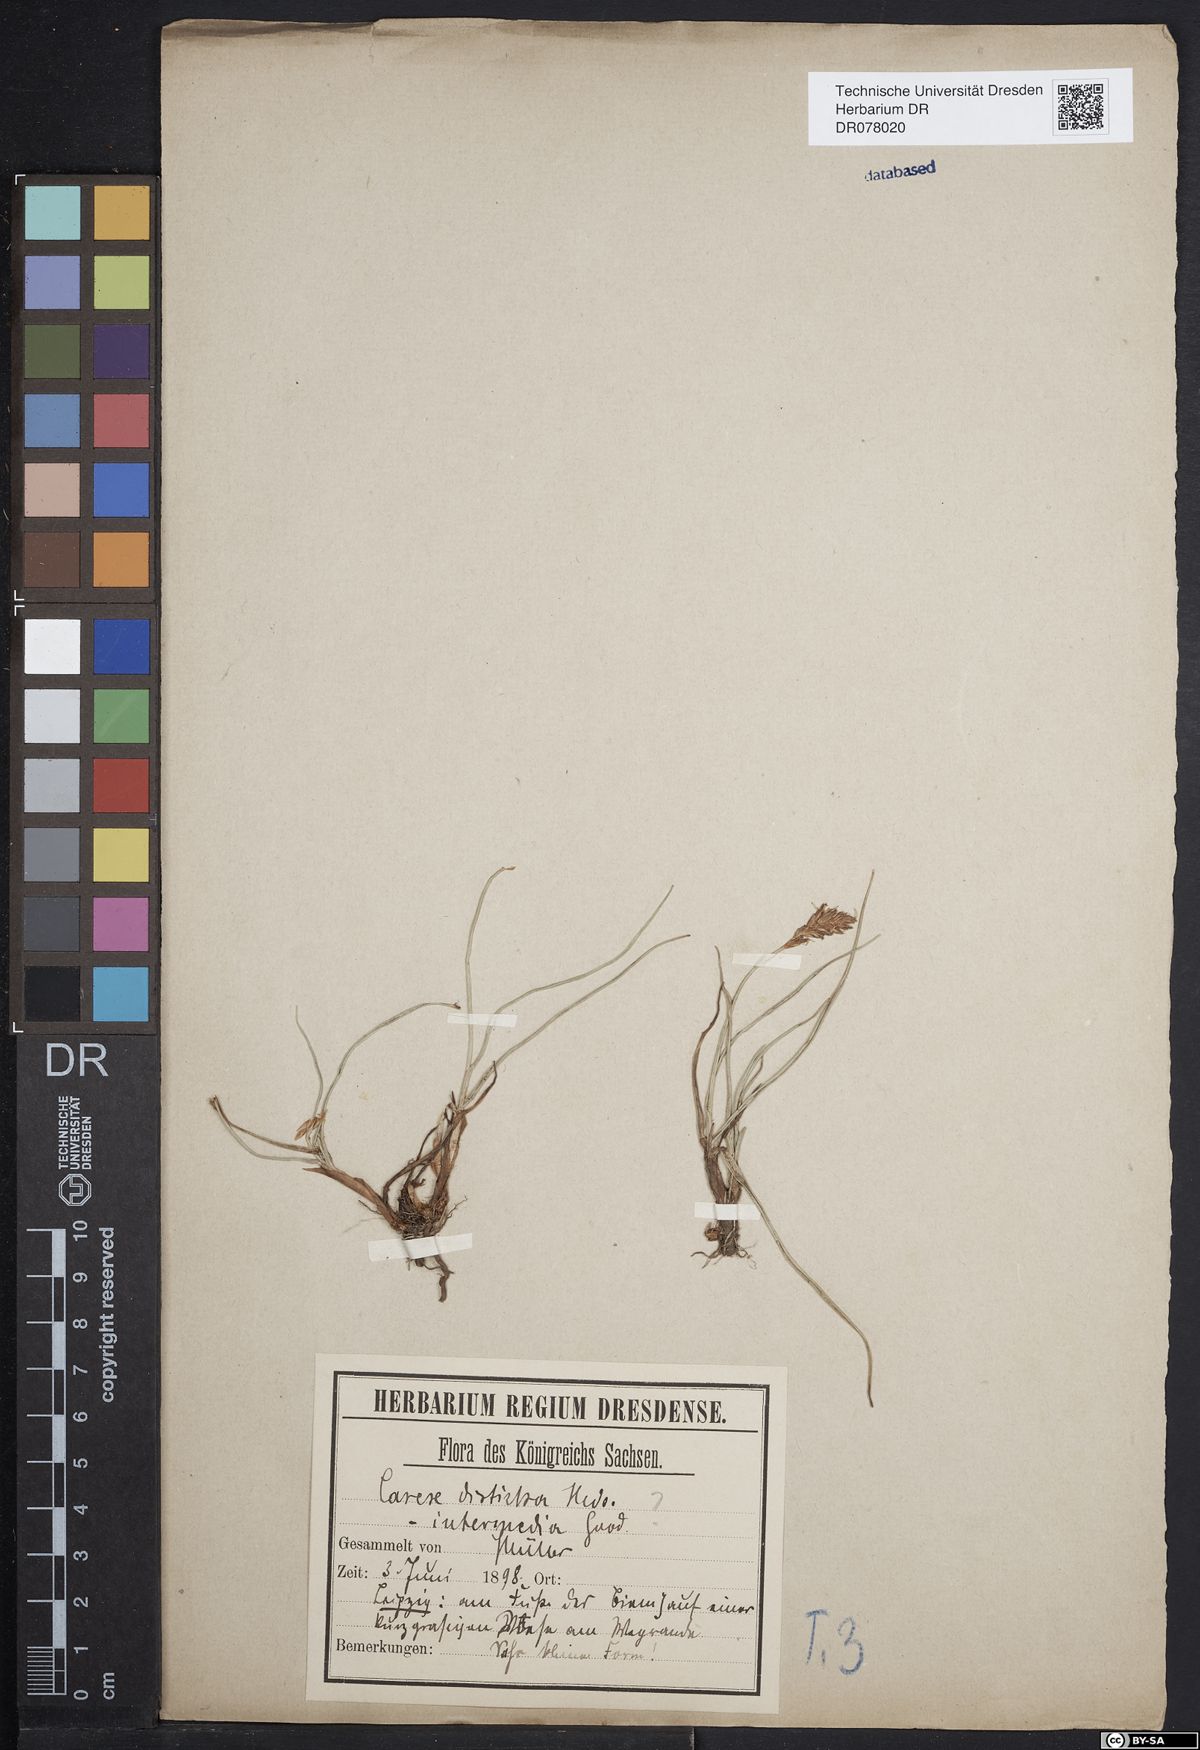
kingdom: Plantae
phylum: Tracheophyta
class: Liliopsida
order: Poales
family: Cyperaceae
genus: Blysmus
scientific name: Blysmus compressus
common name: Flat-sedge
